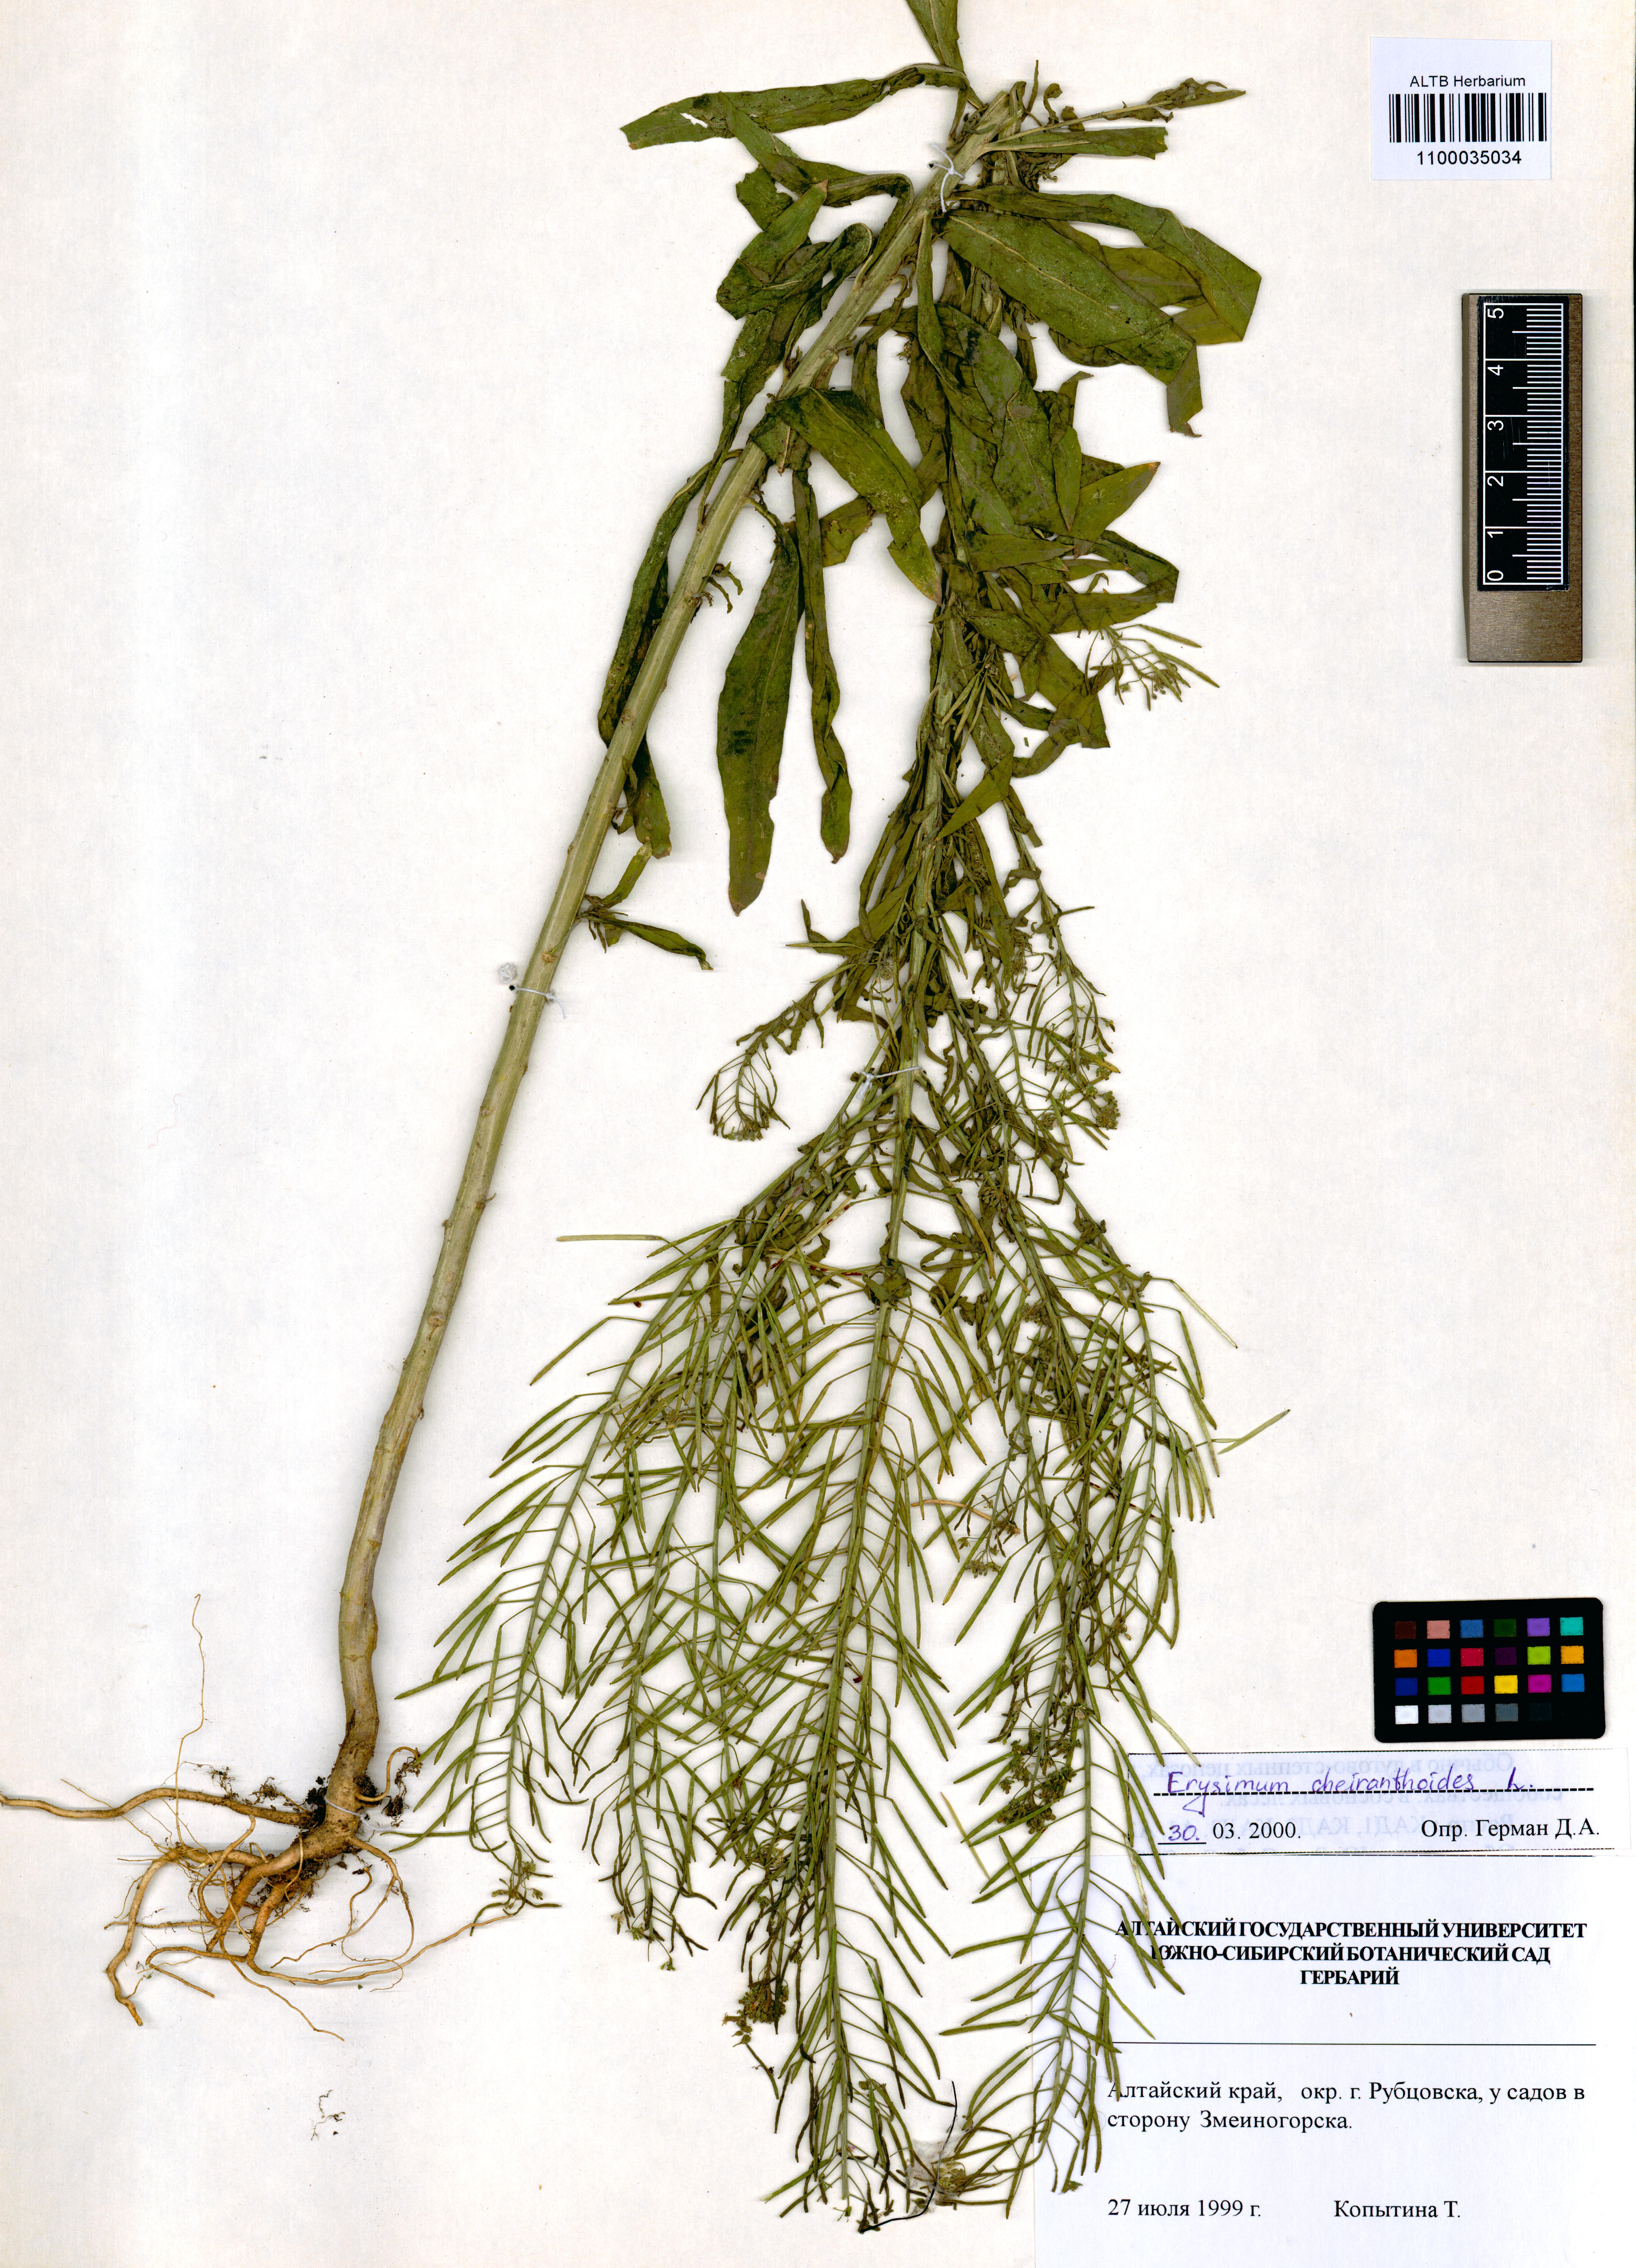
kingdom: Plantae
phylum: Tracheophyta
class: Magnoliopsida
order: Brassicales
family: Brassicaceae
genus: Erysimum
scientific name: Erysimum cheiranthoides
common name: Treacle mustard
